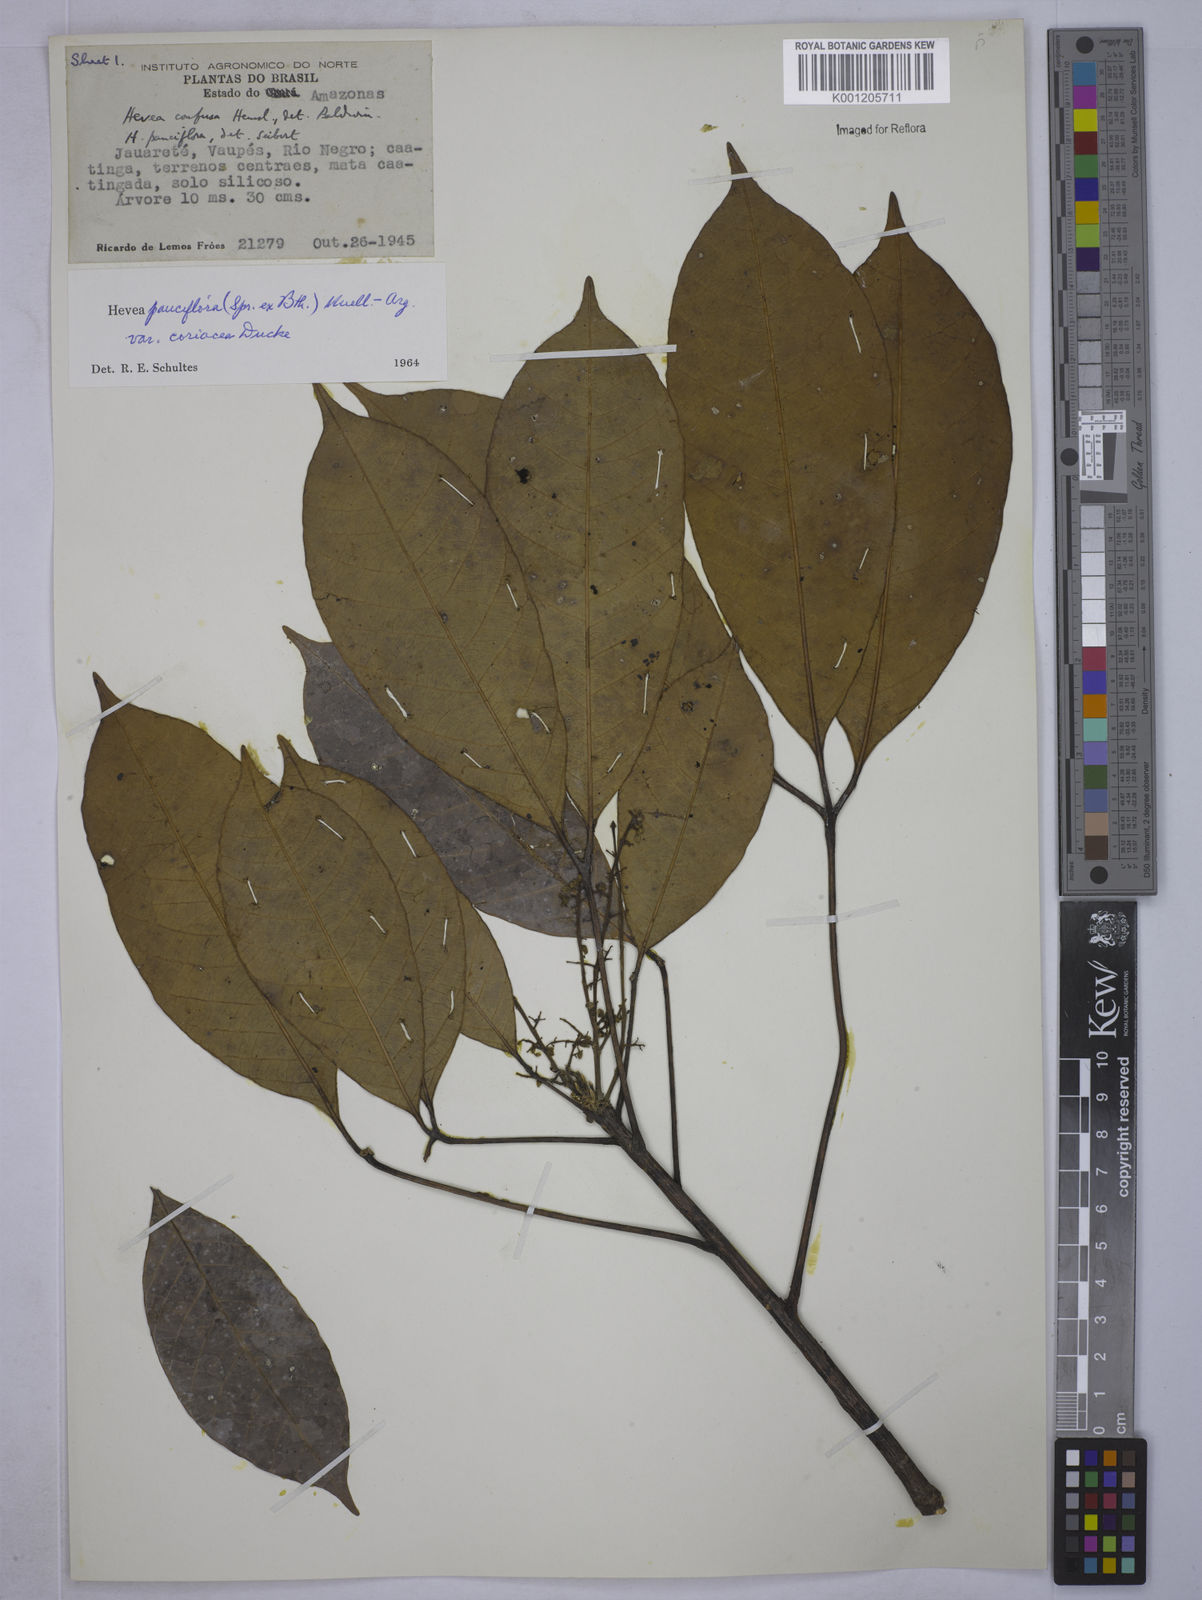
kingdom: Plantae
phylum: Tracheophyta
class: Magnoliopsida
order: Malpighiales
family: Euphorbiaceae
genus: Hevea
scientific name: Hevea pauciflora
